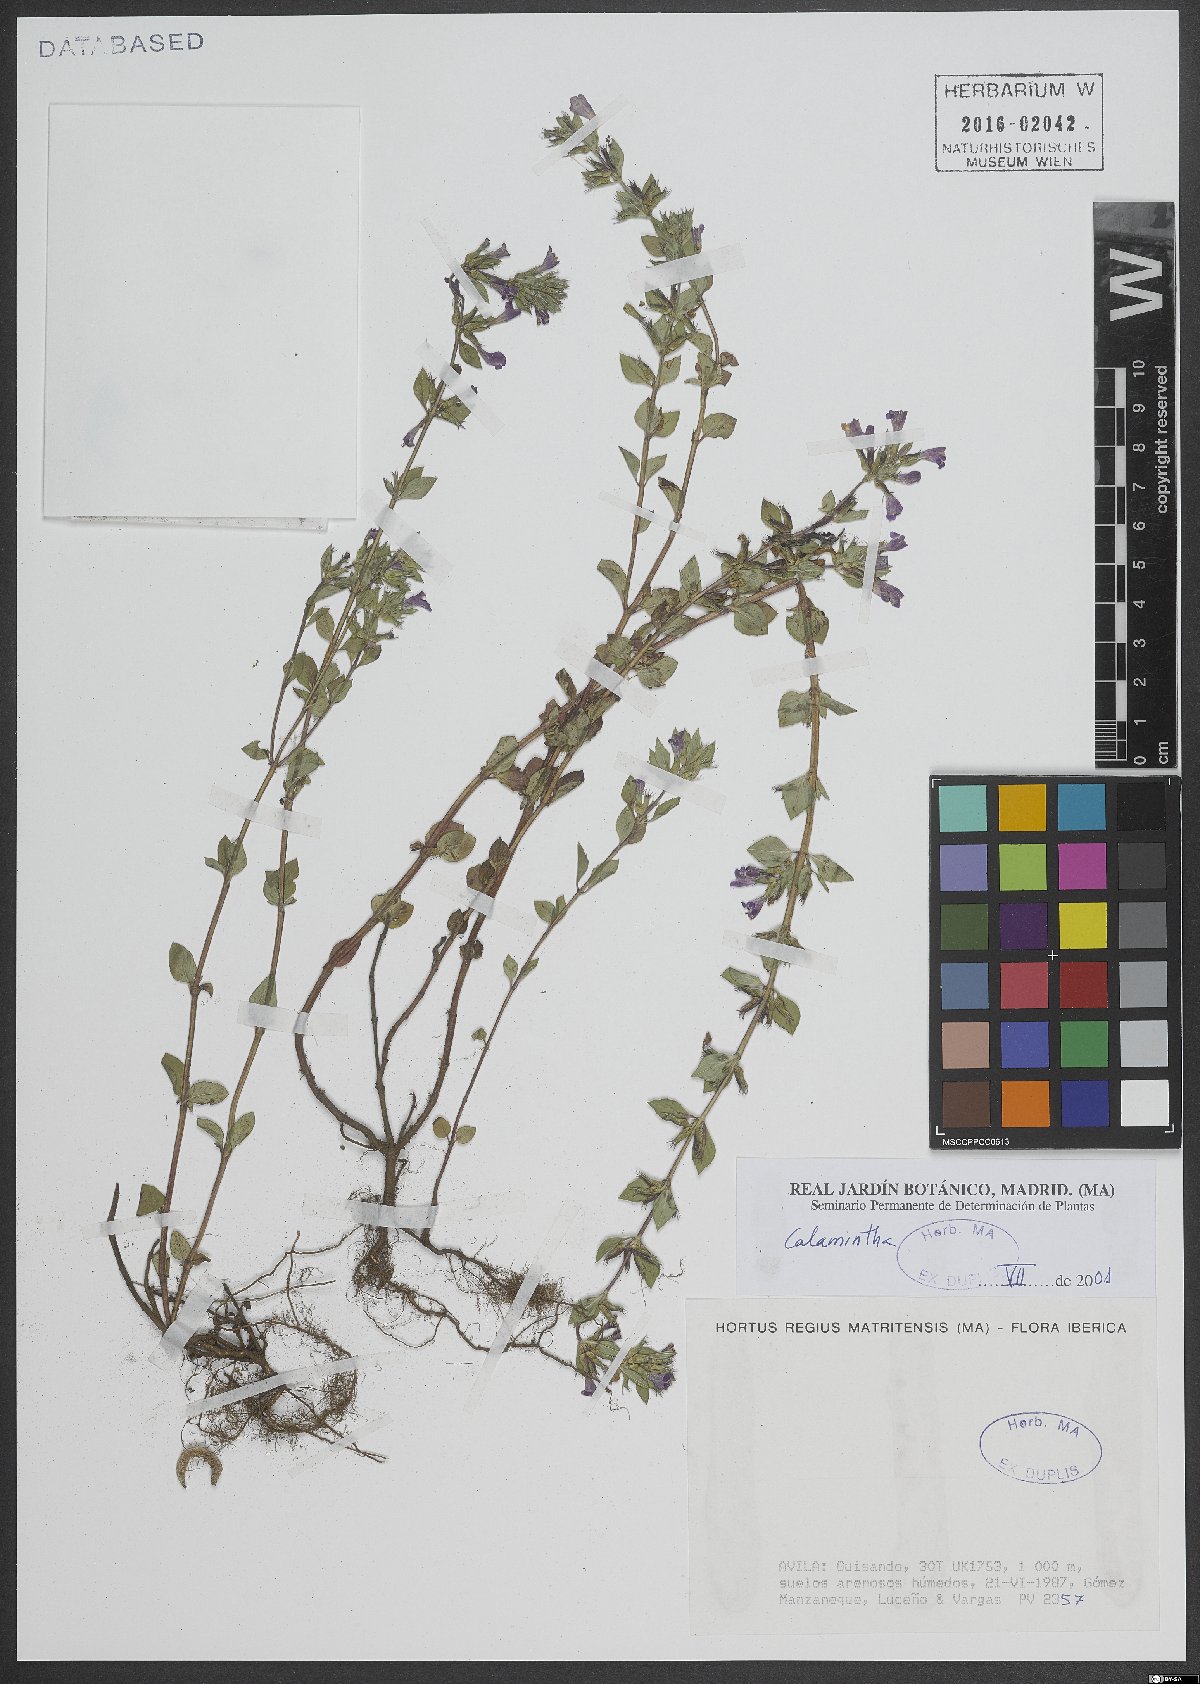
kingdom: Plantae
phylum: Tracheophyta
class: Magnoliopsida
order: Lamiales
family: Lamiaceae
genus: Calamintha
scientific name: Calamintha
